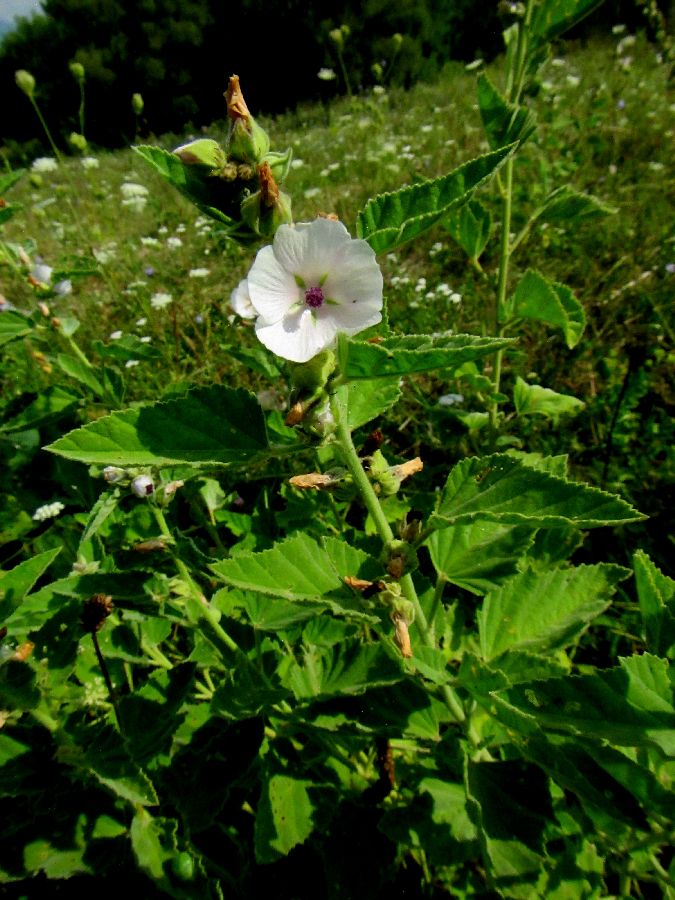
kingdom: Plantae
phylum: Tracheophyta
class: Magnoliopsida
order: Malvales
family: Malvaceae
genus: Althaea
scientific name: Althaea officinalis
